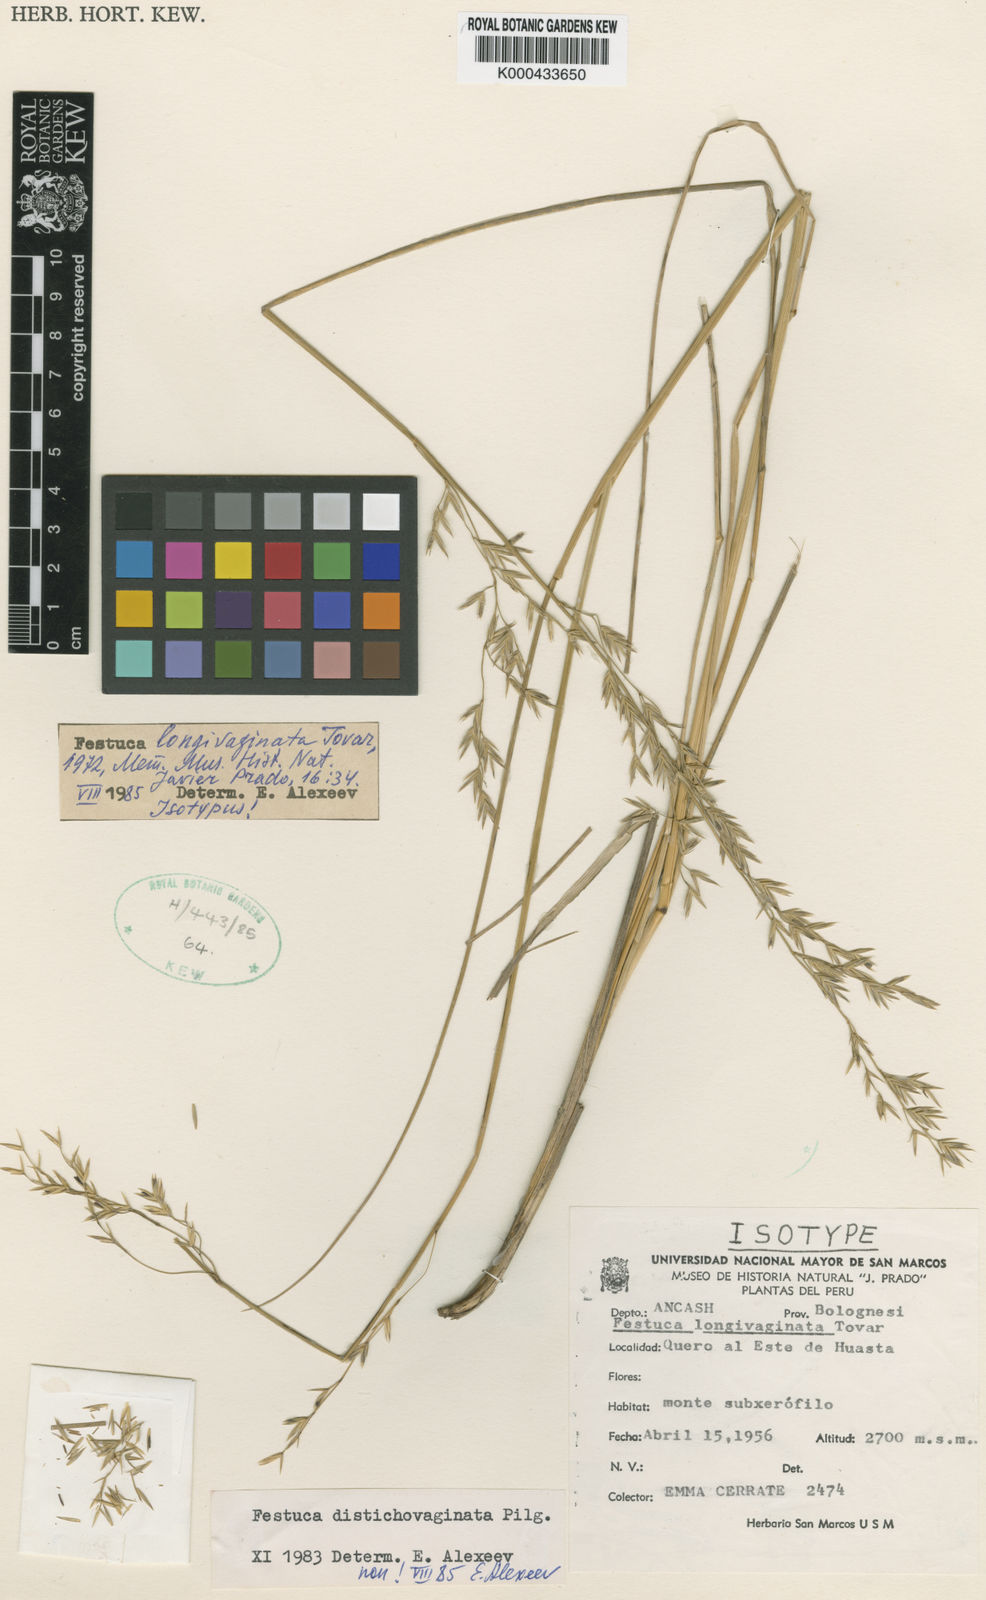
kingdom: Plantae
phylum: Tracheophyta
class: Liliopsida
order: Poales
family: Poaceae
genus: Festuca
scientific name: Festuca longivaginata
